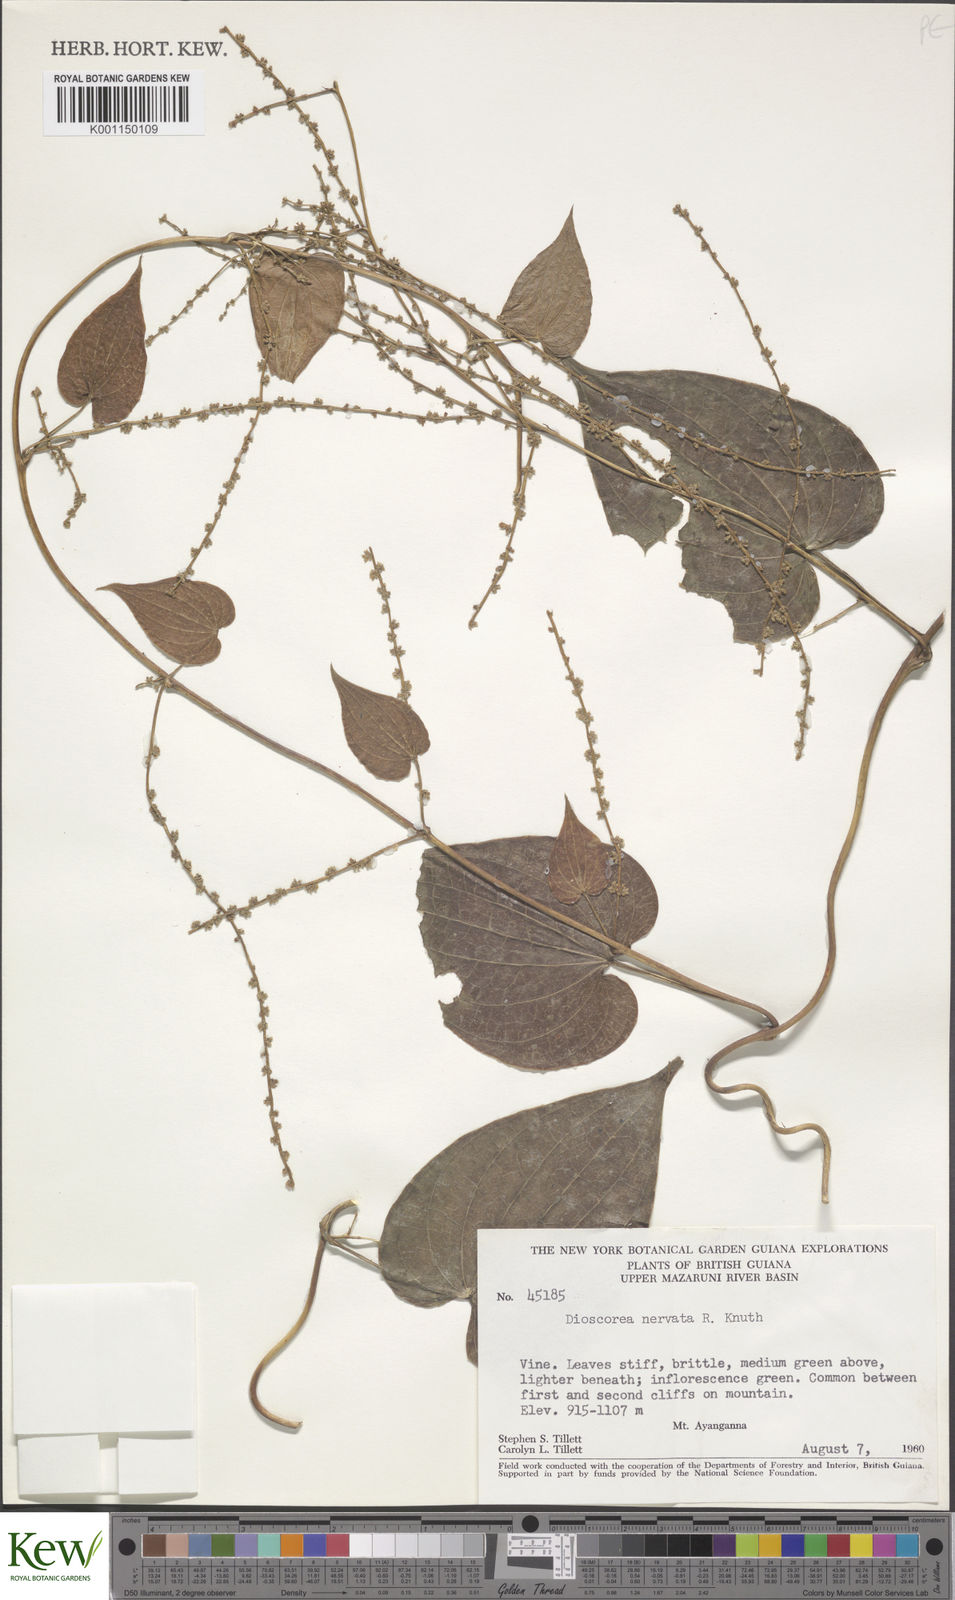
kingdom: Plantae
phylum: Tracheophyta
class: Liliopsida
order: Dioscoreales
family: Dioscoreaceae
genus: Dioscorea
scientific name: Dioscorea nervata
